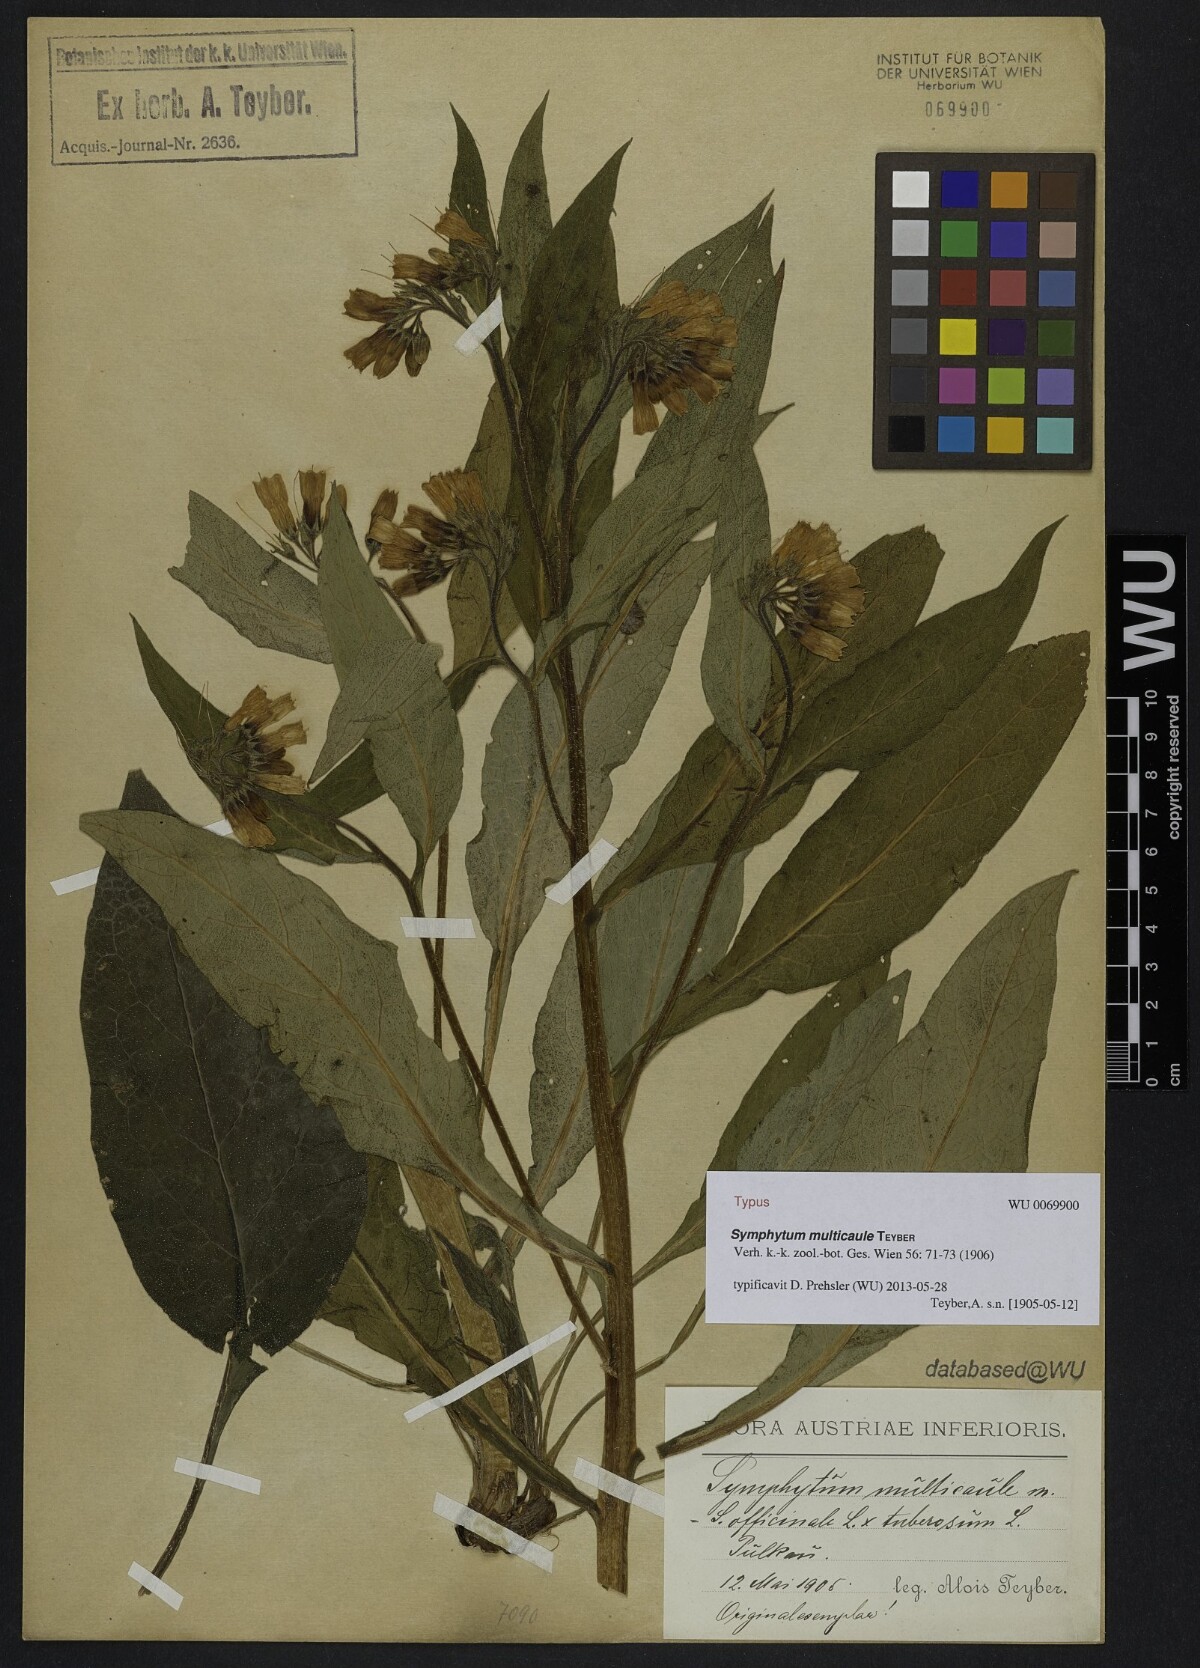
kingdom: Plantae
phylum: Tracheophyta
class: Magnoliopsida
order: Boraginales
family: Boraginaceae
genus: Symphytum
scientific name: Symphytum wettsteinii
